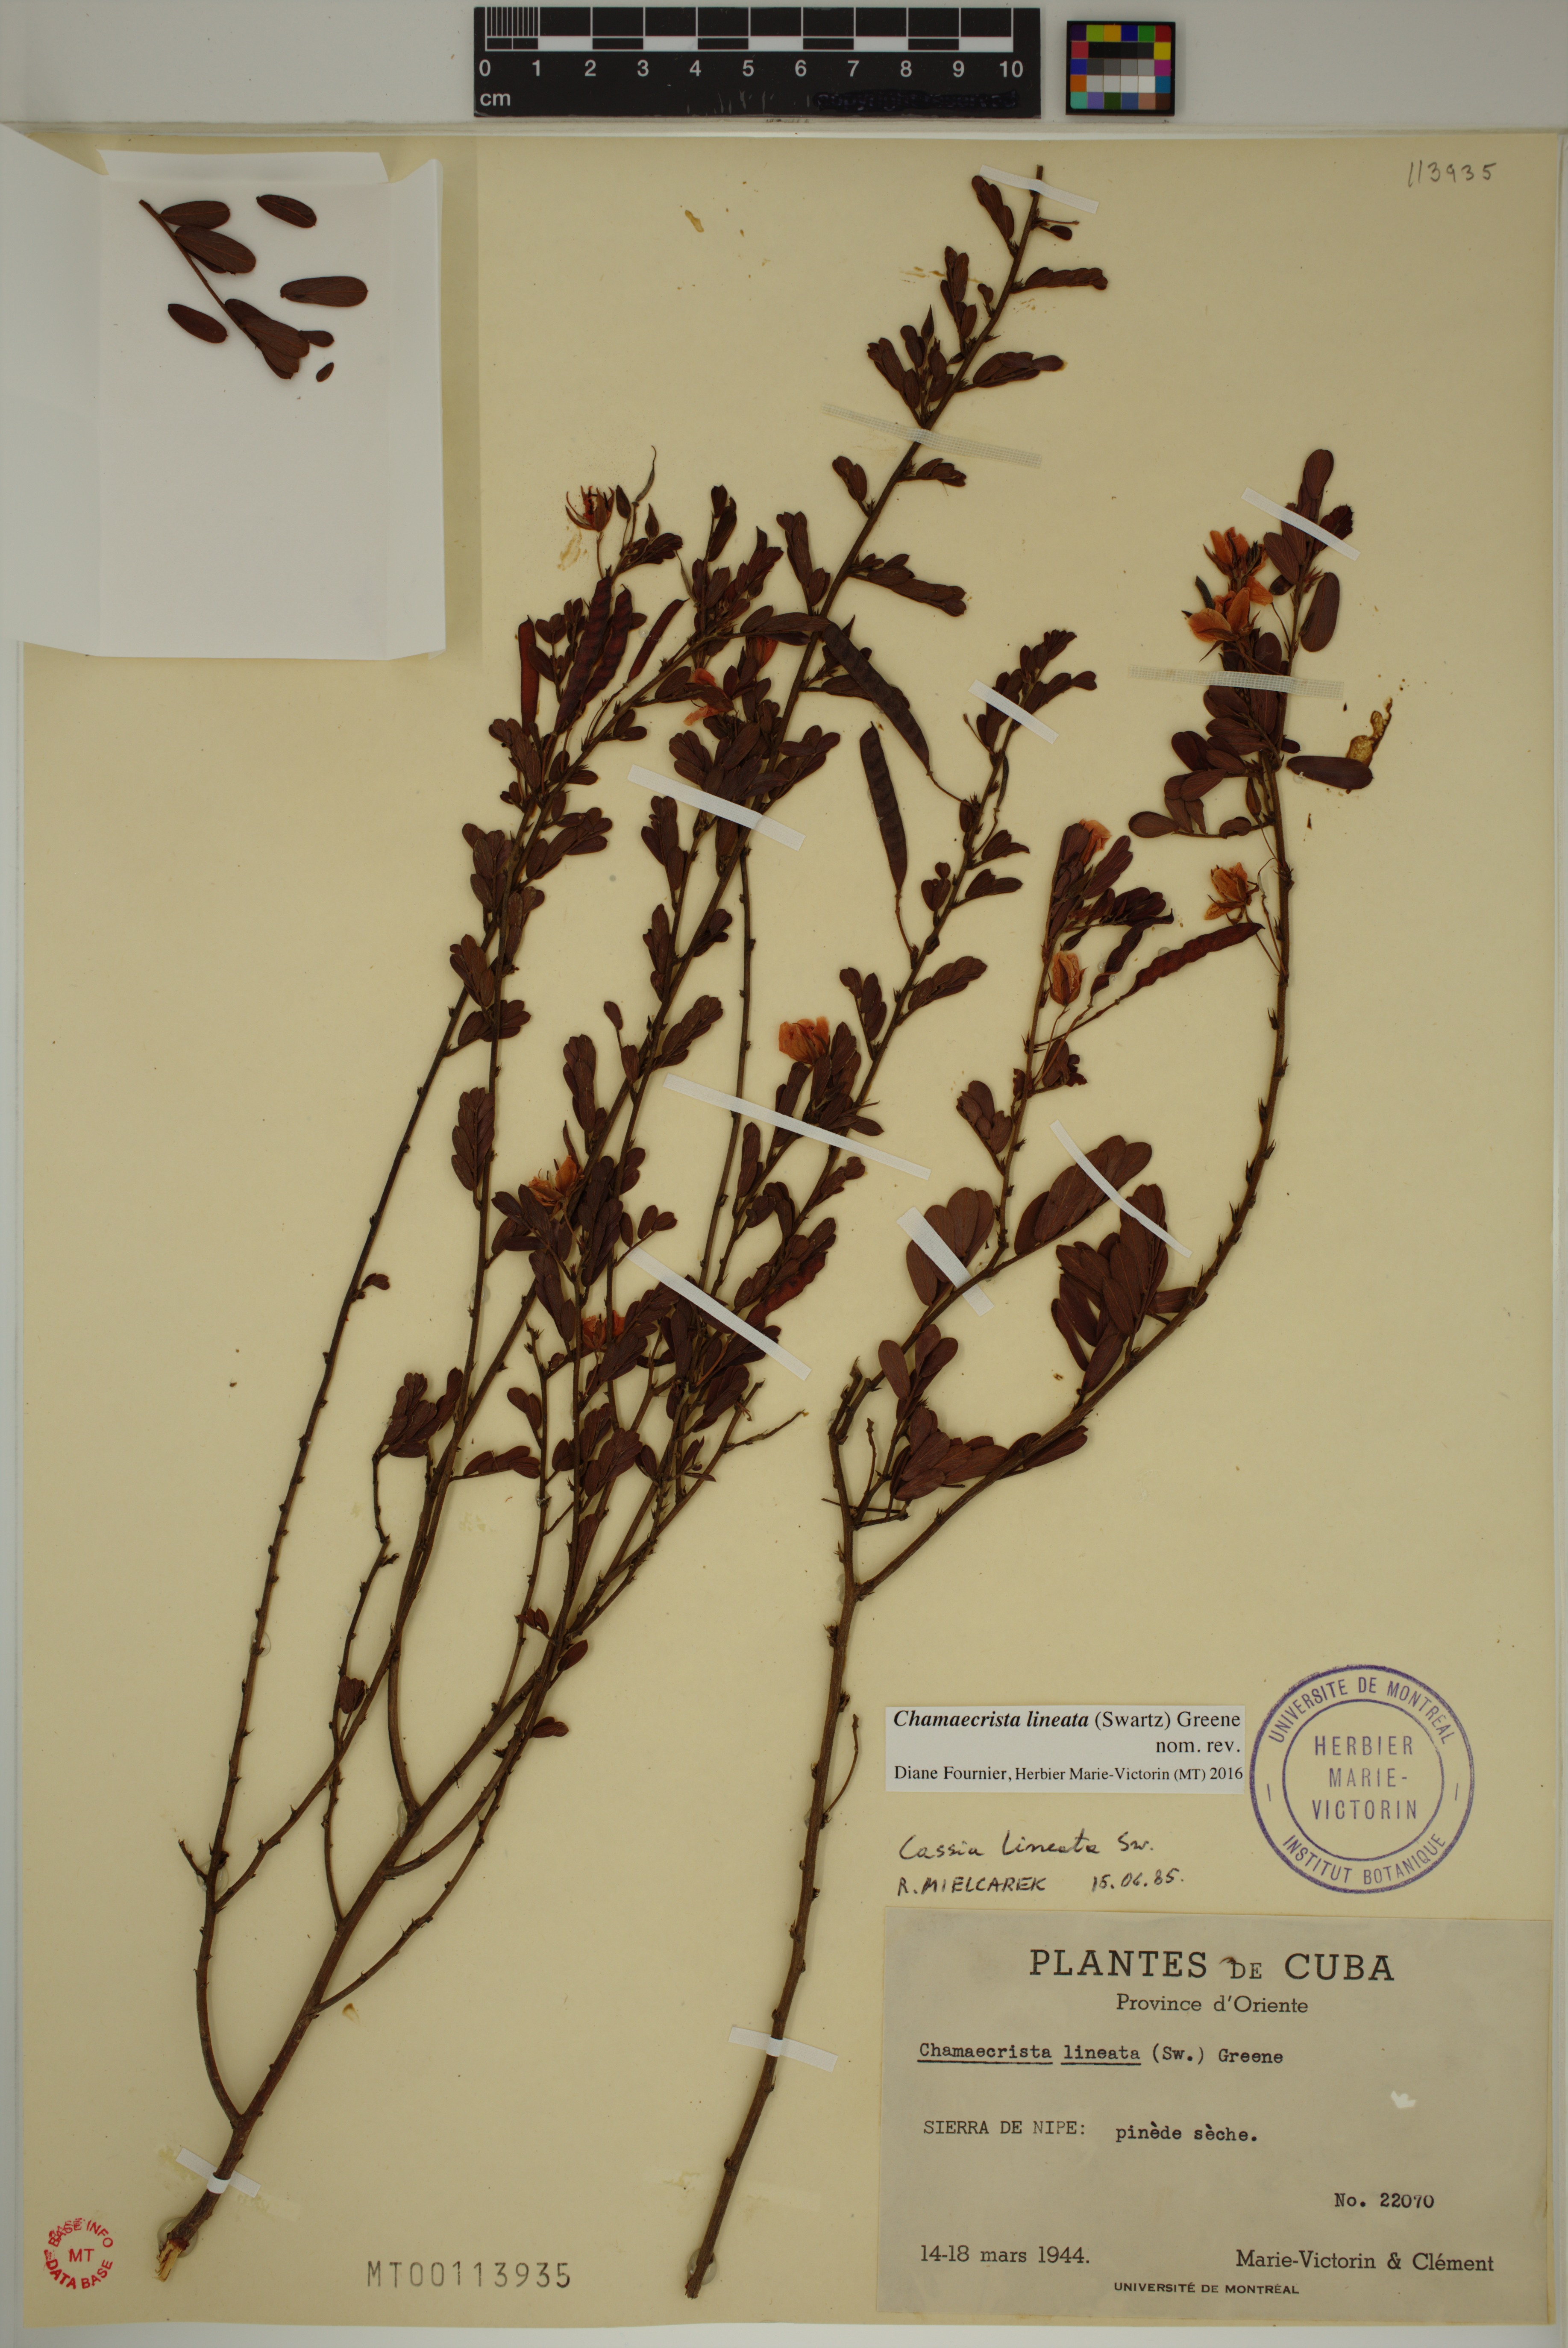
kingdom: Plantae
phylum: Tracheophyta
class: Magnoliopsida
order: Fabales
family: Fabaceae
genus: Chamaecrista
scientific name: Chamaecrista lineata
